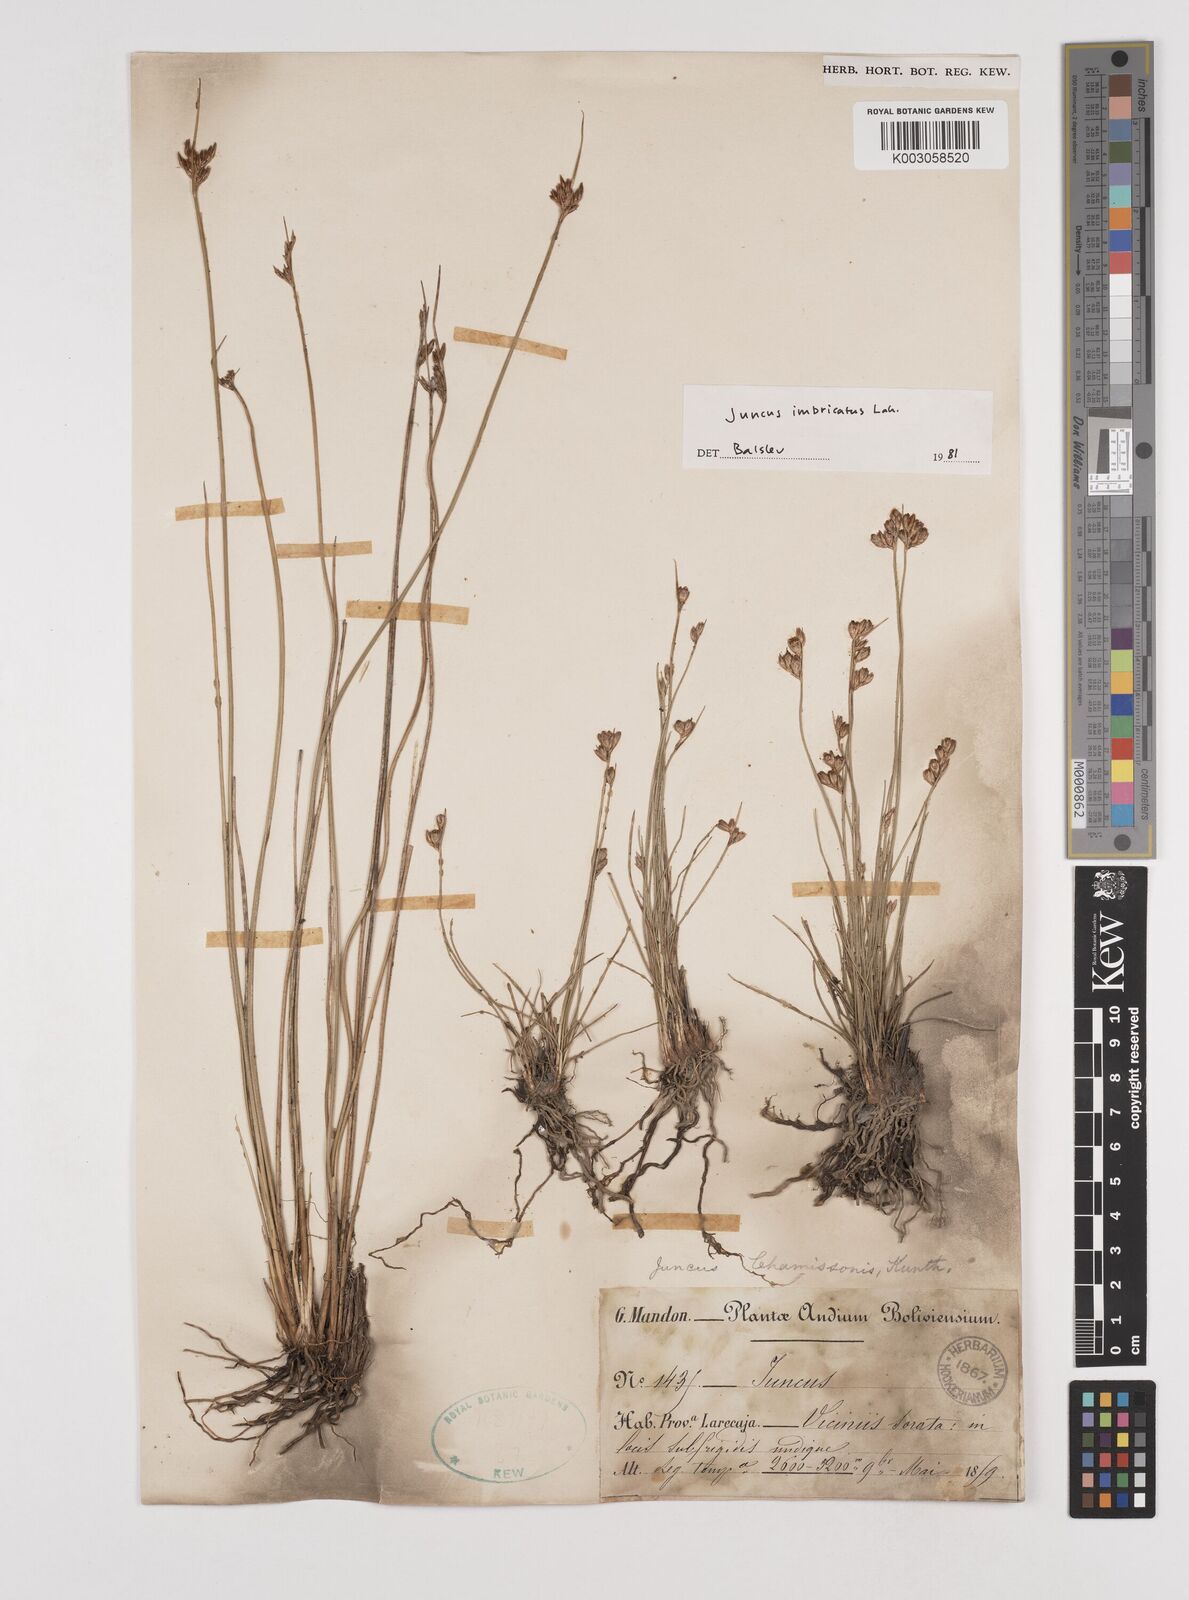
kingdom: Plantae
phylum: Tracheophyta
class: Liliopsida
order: Poales
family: Juncaceae
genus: Juncus
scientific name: Juncus imbricatus
